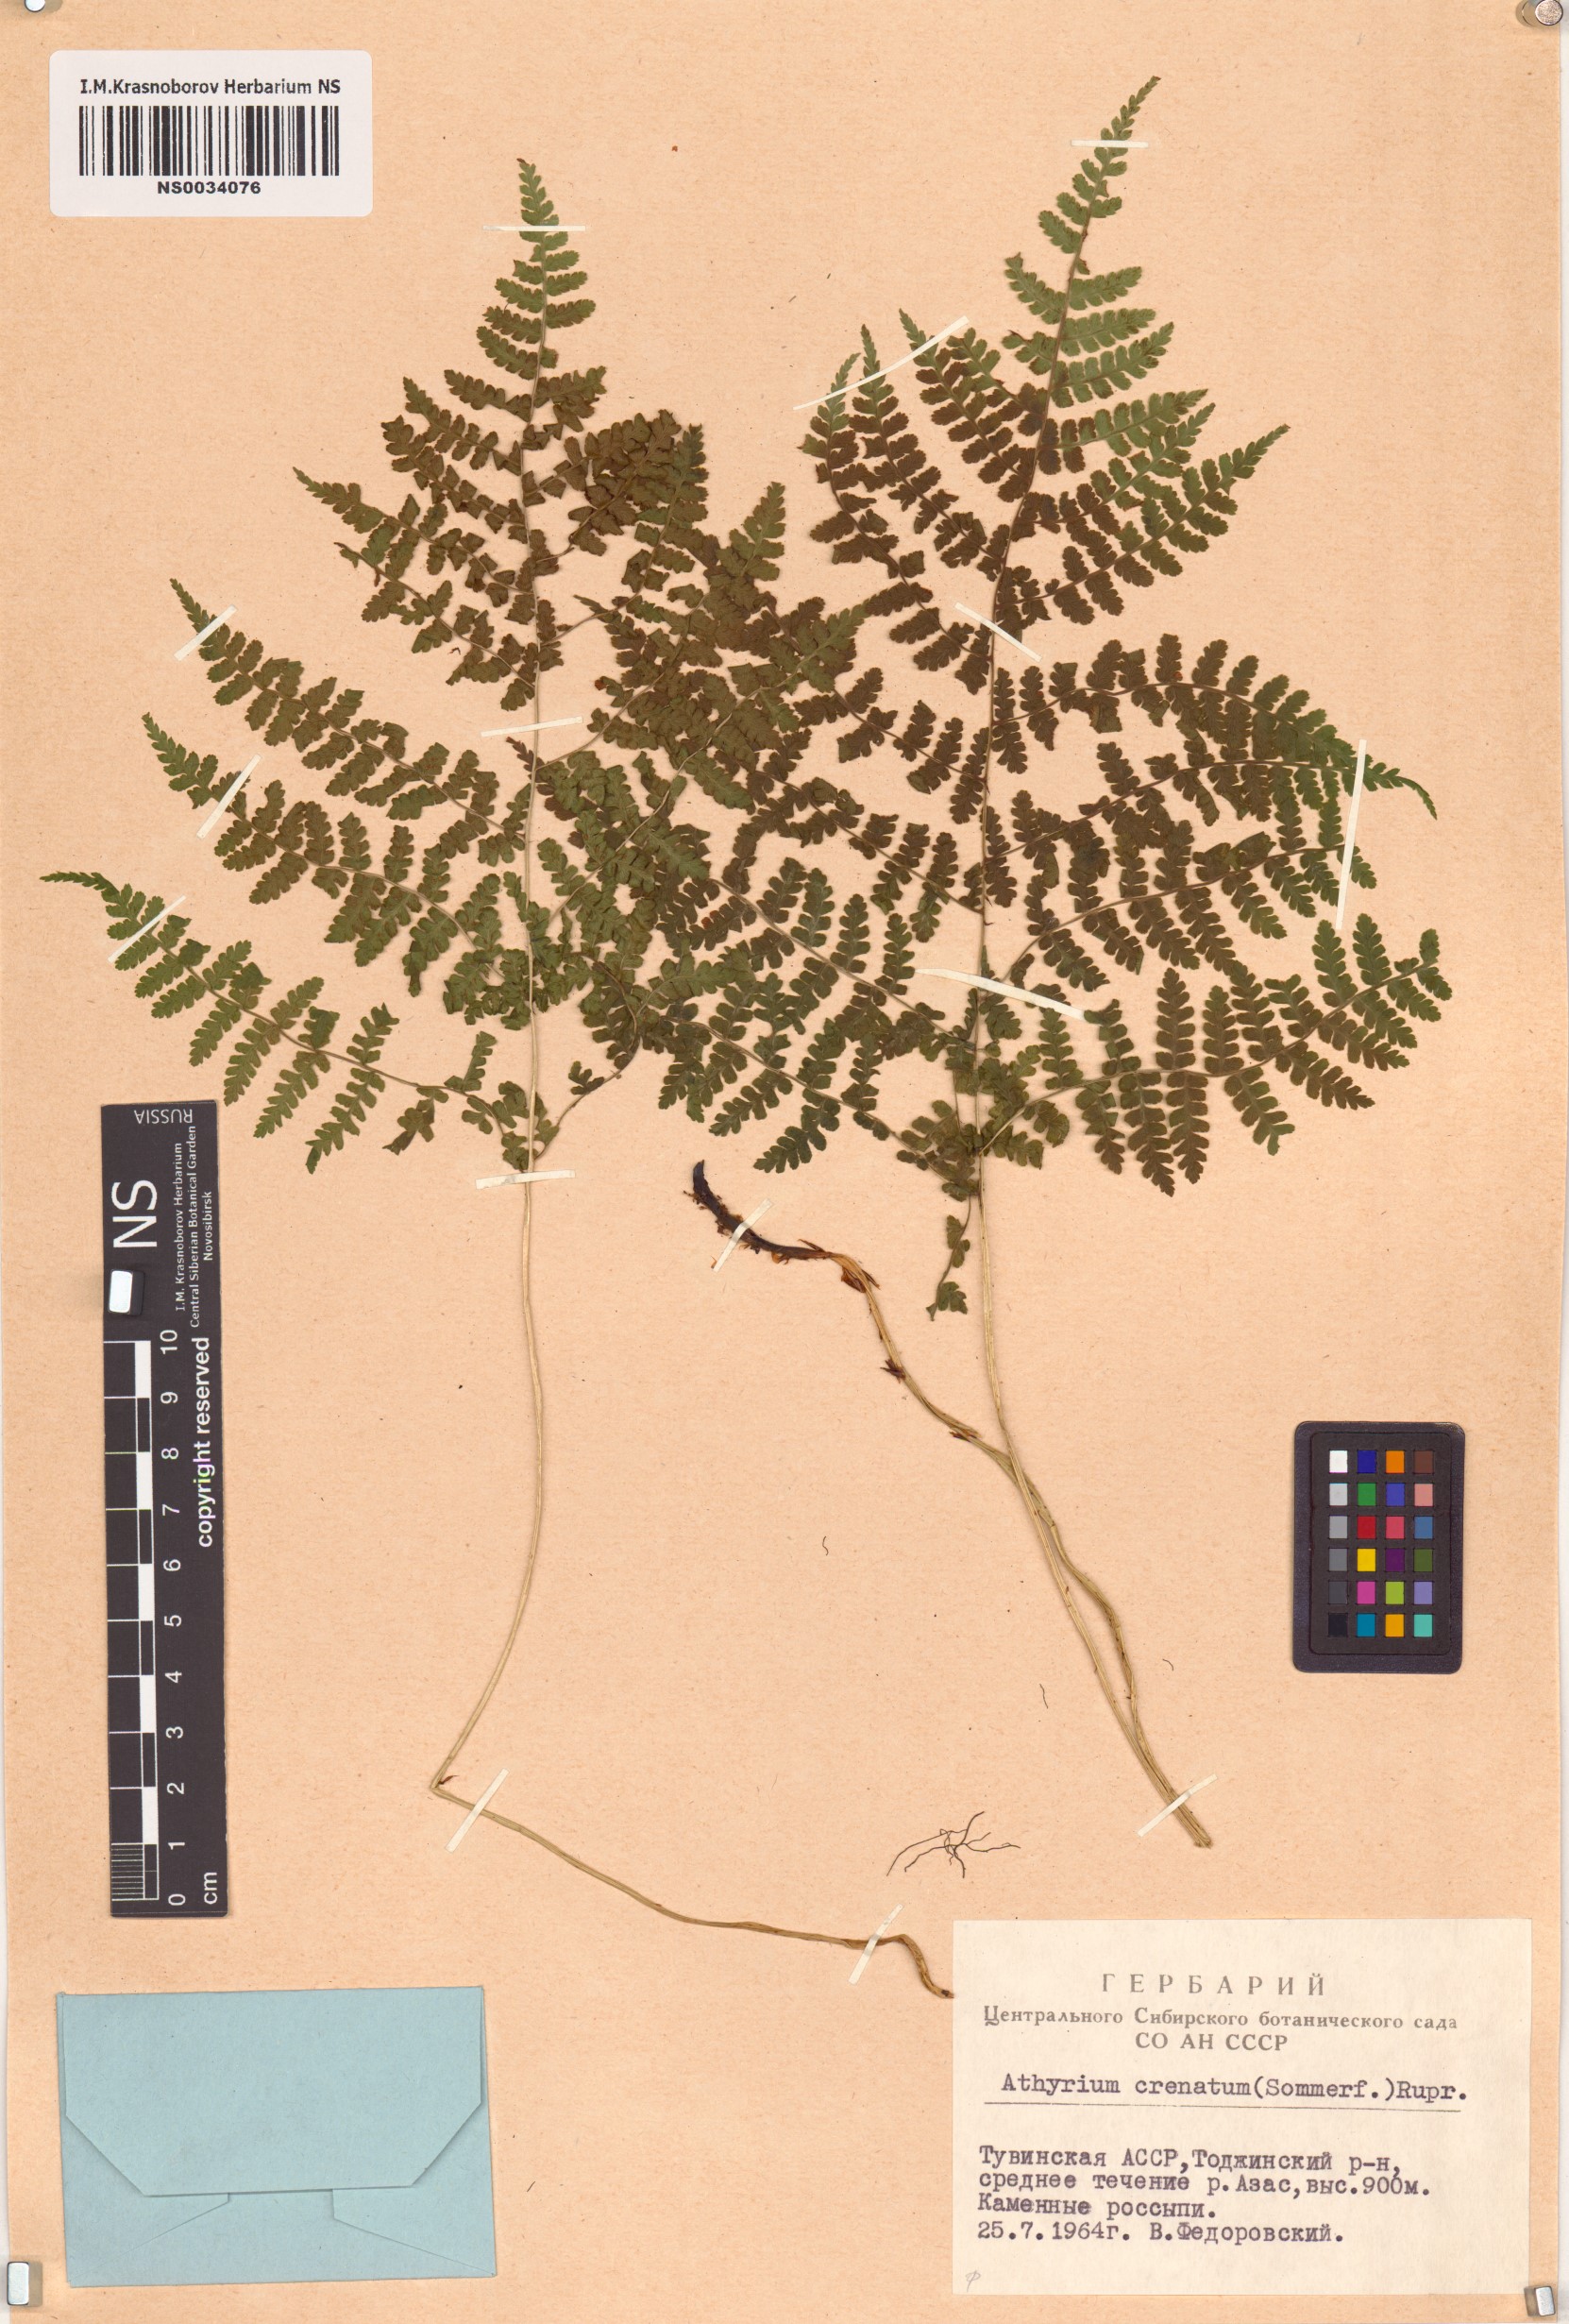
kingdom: Plantae
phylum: Tracheophyta
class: Polypodiopsida
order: Polypodiales
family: Athyriaceae
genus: Diplazium
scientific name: Diplazium sibiricum
